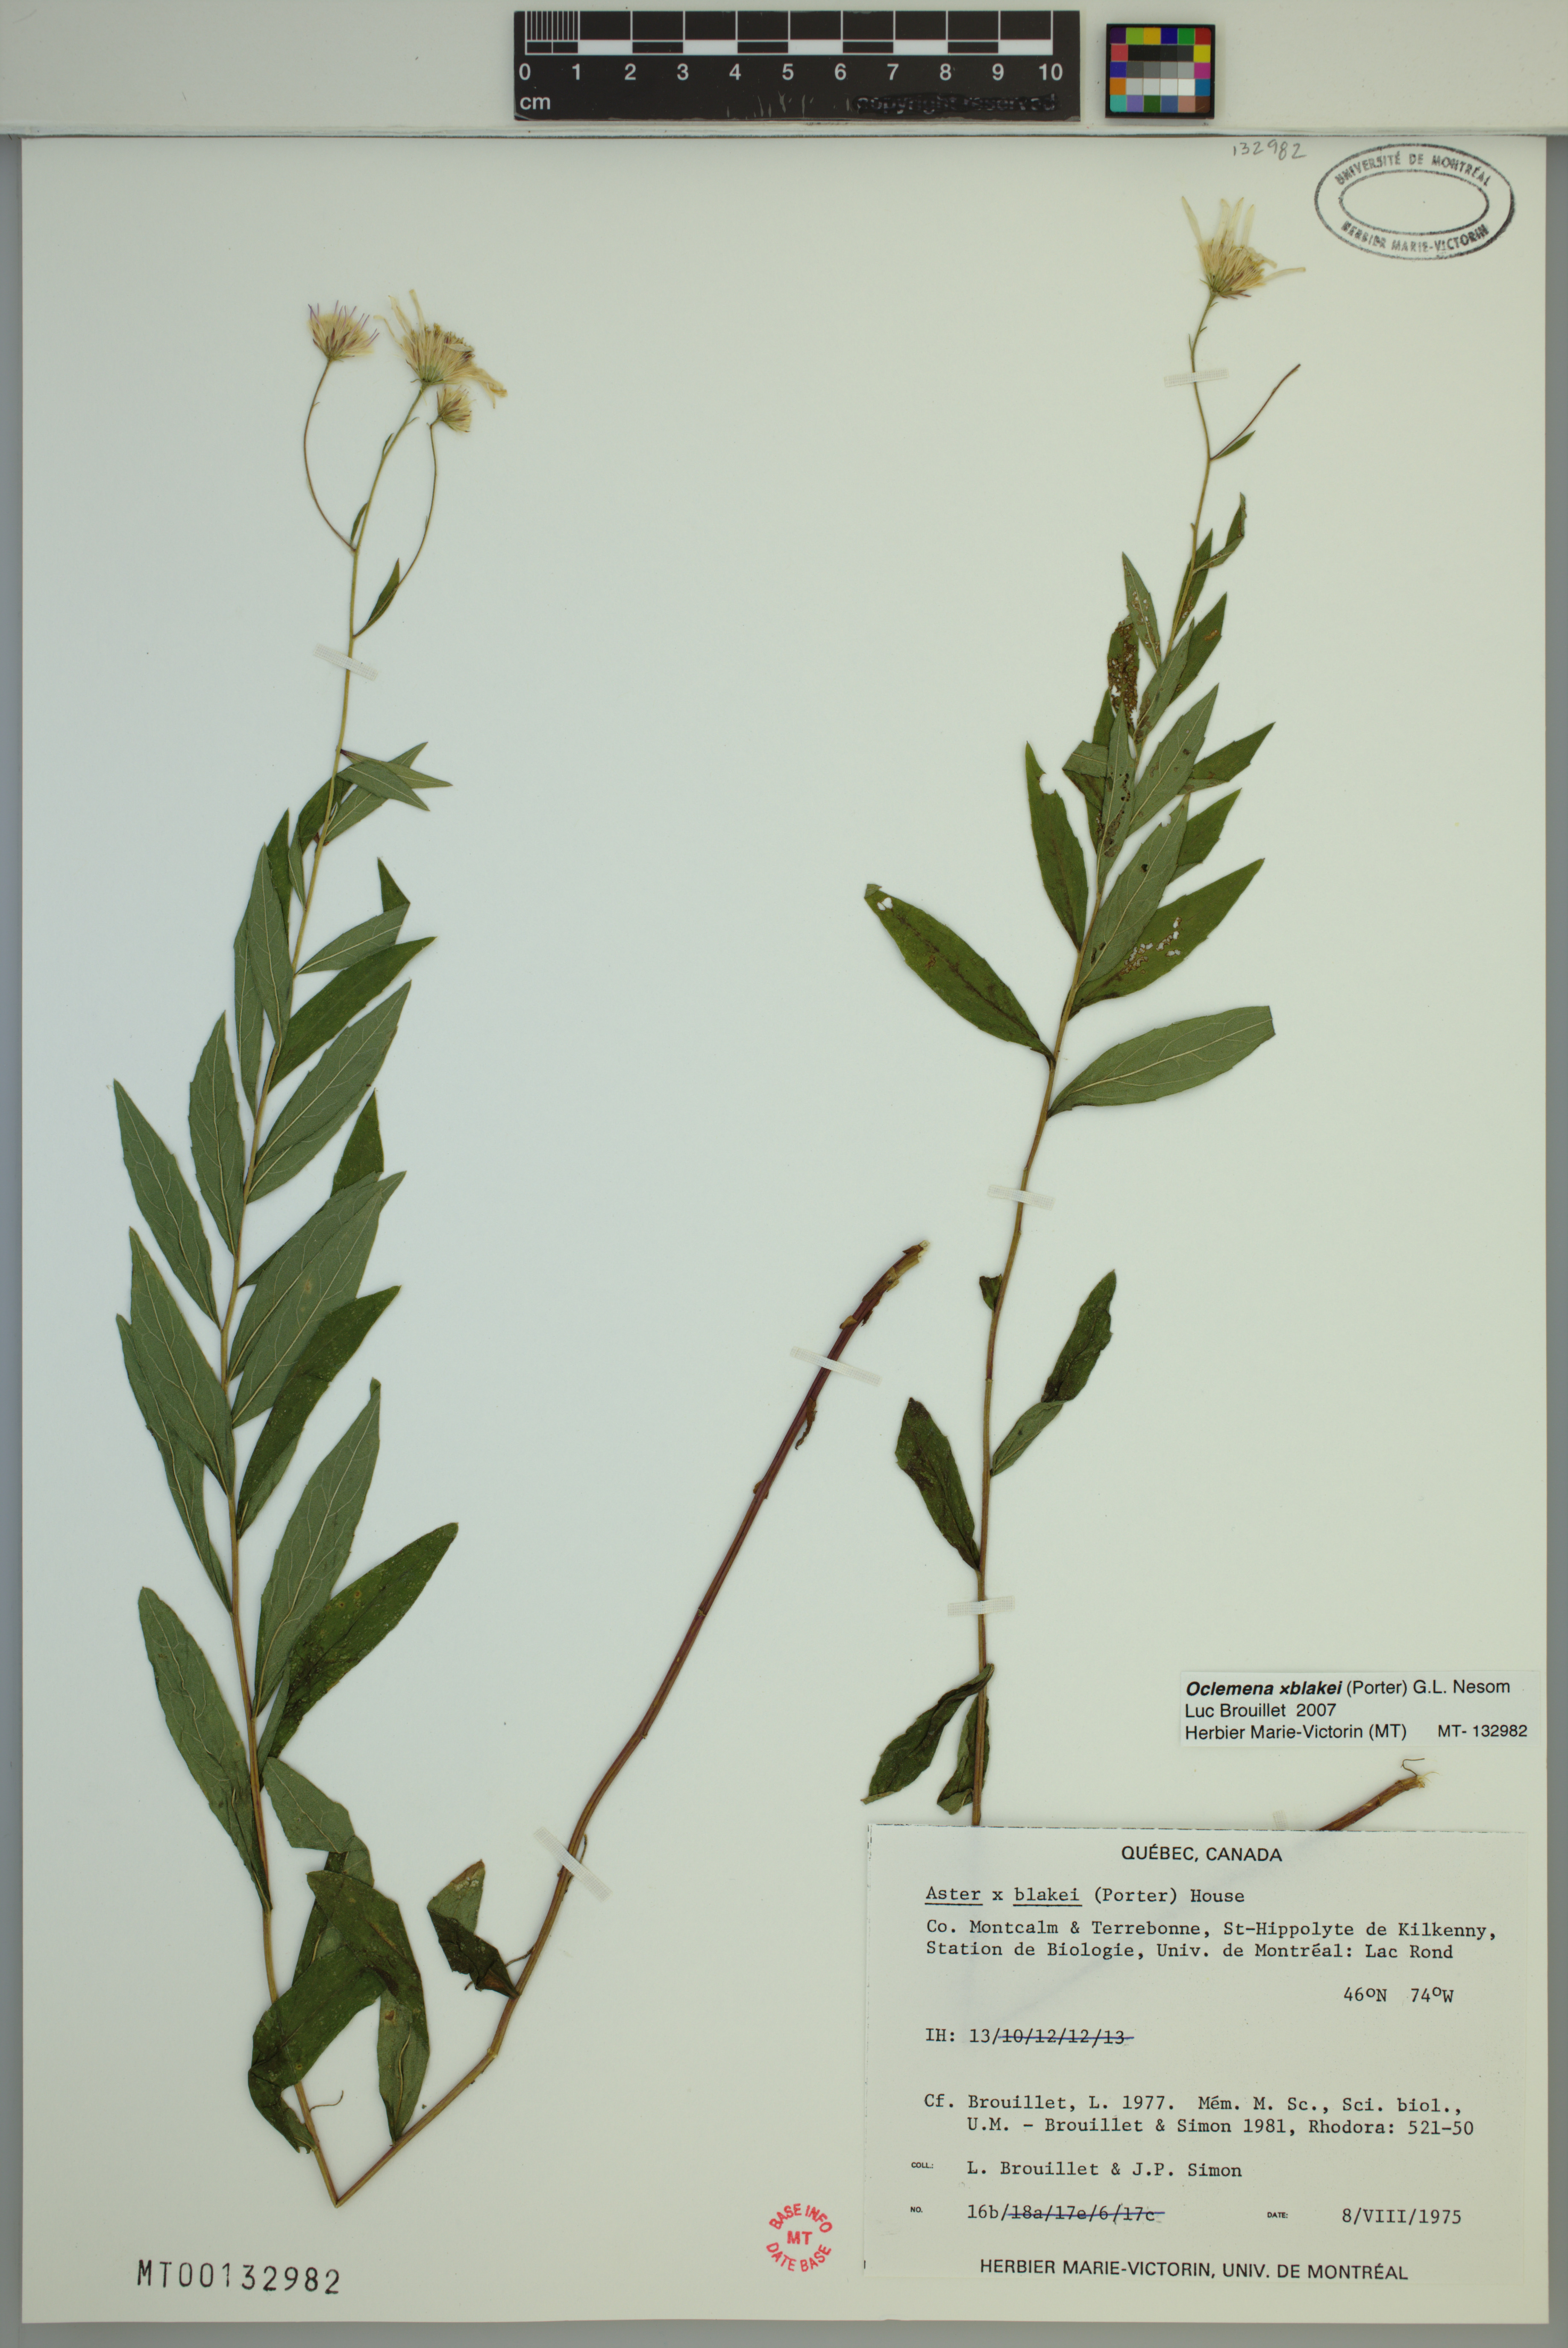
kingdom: Plantae
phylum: Tracheophyta
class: Magnoliopsida
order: Asterales
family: Asteraceae
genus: Oclemena
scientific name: Oclemena blakei
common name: Blake's aster
